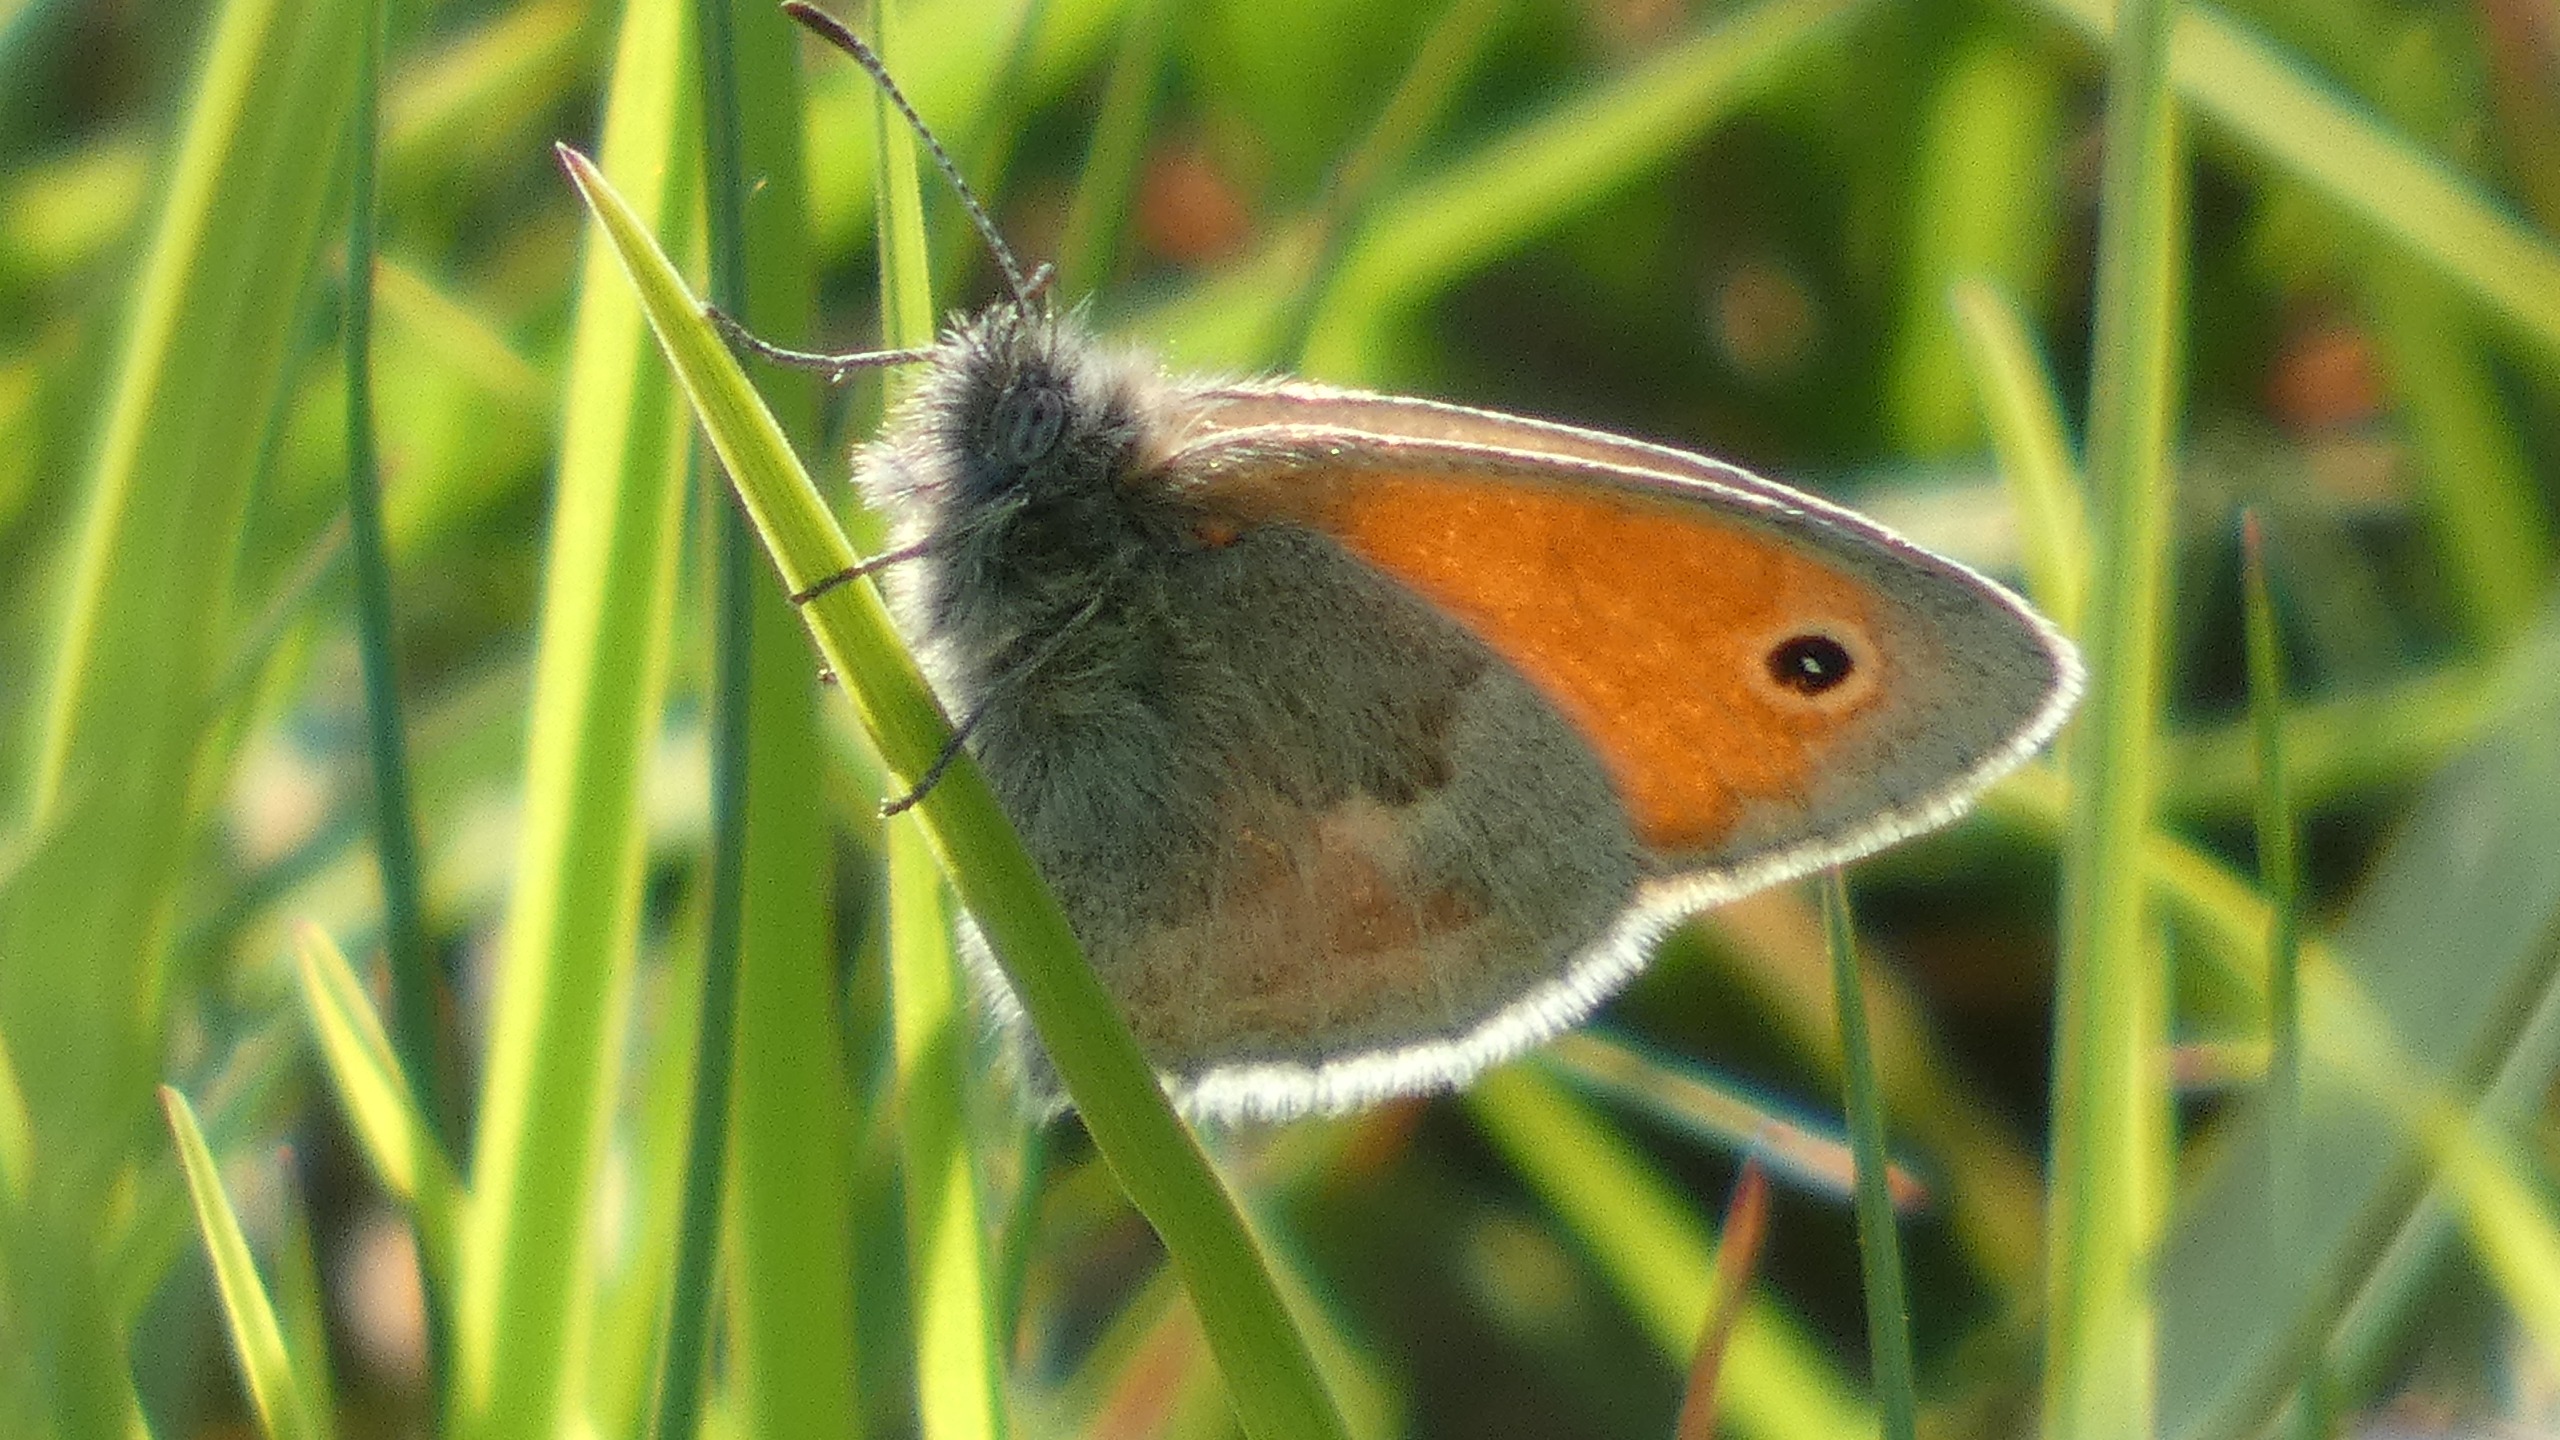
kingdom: Animalia
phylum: Arthropoda
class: Insecta
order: Lepidoptera
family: Nymphalidae
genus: Coenonympha
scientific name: Coenonympha pamphilus
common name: Okkergul randøje
